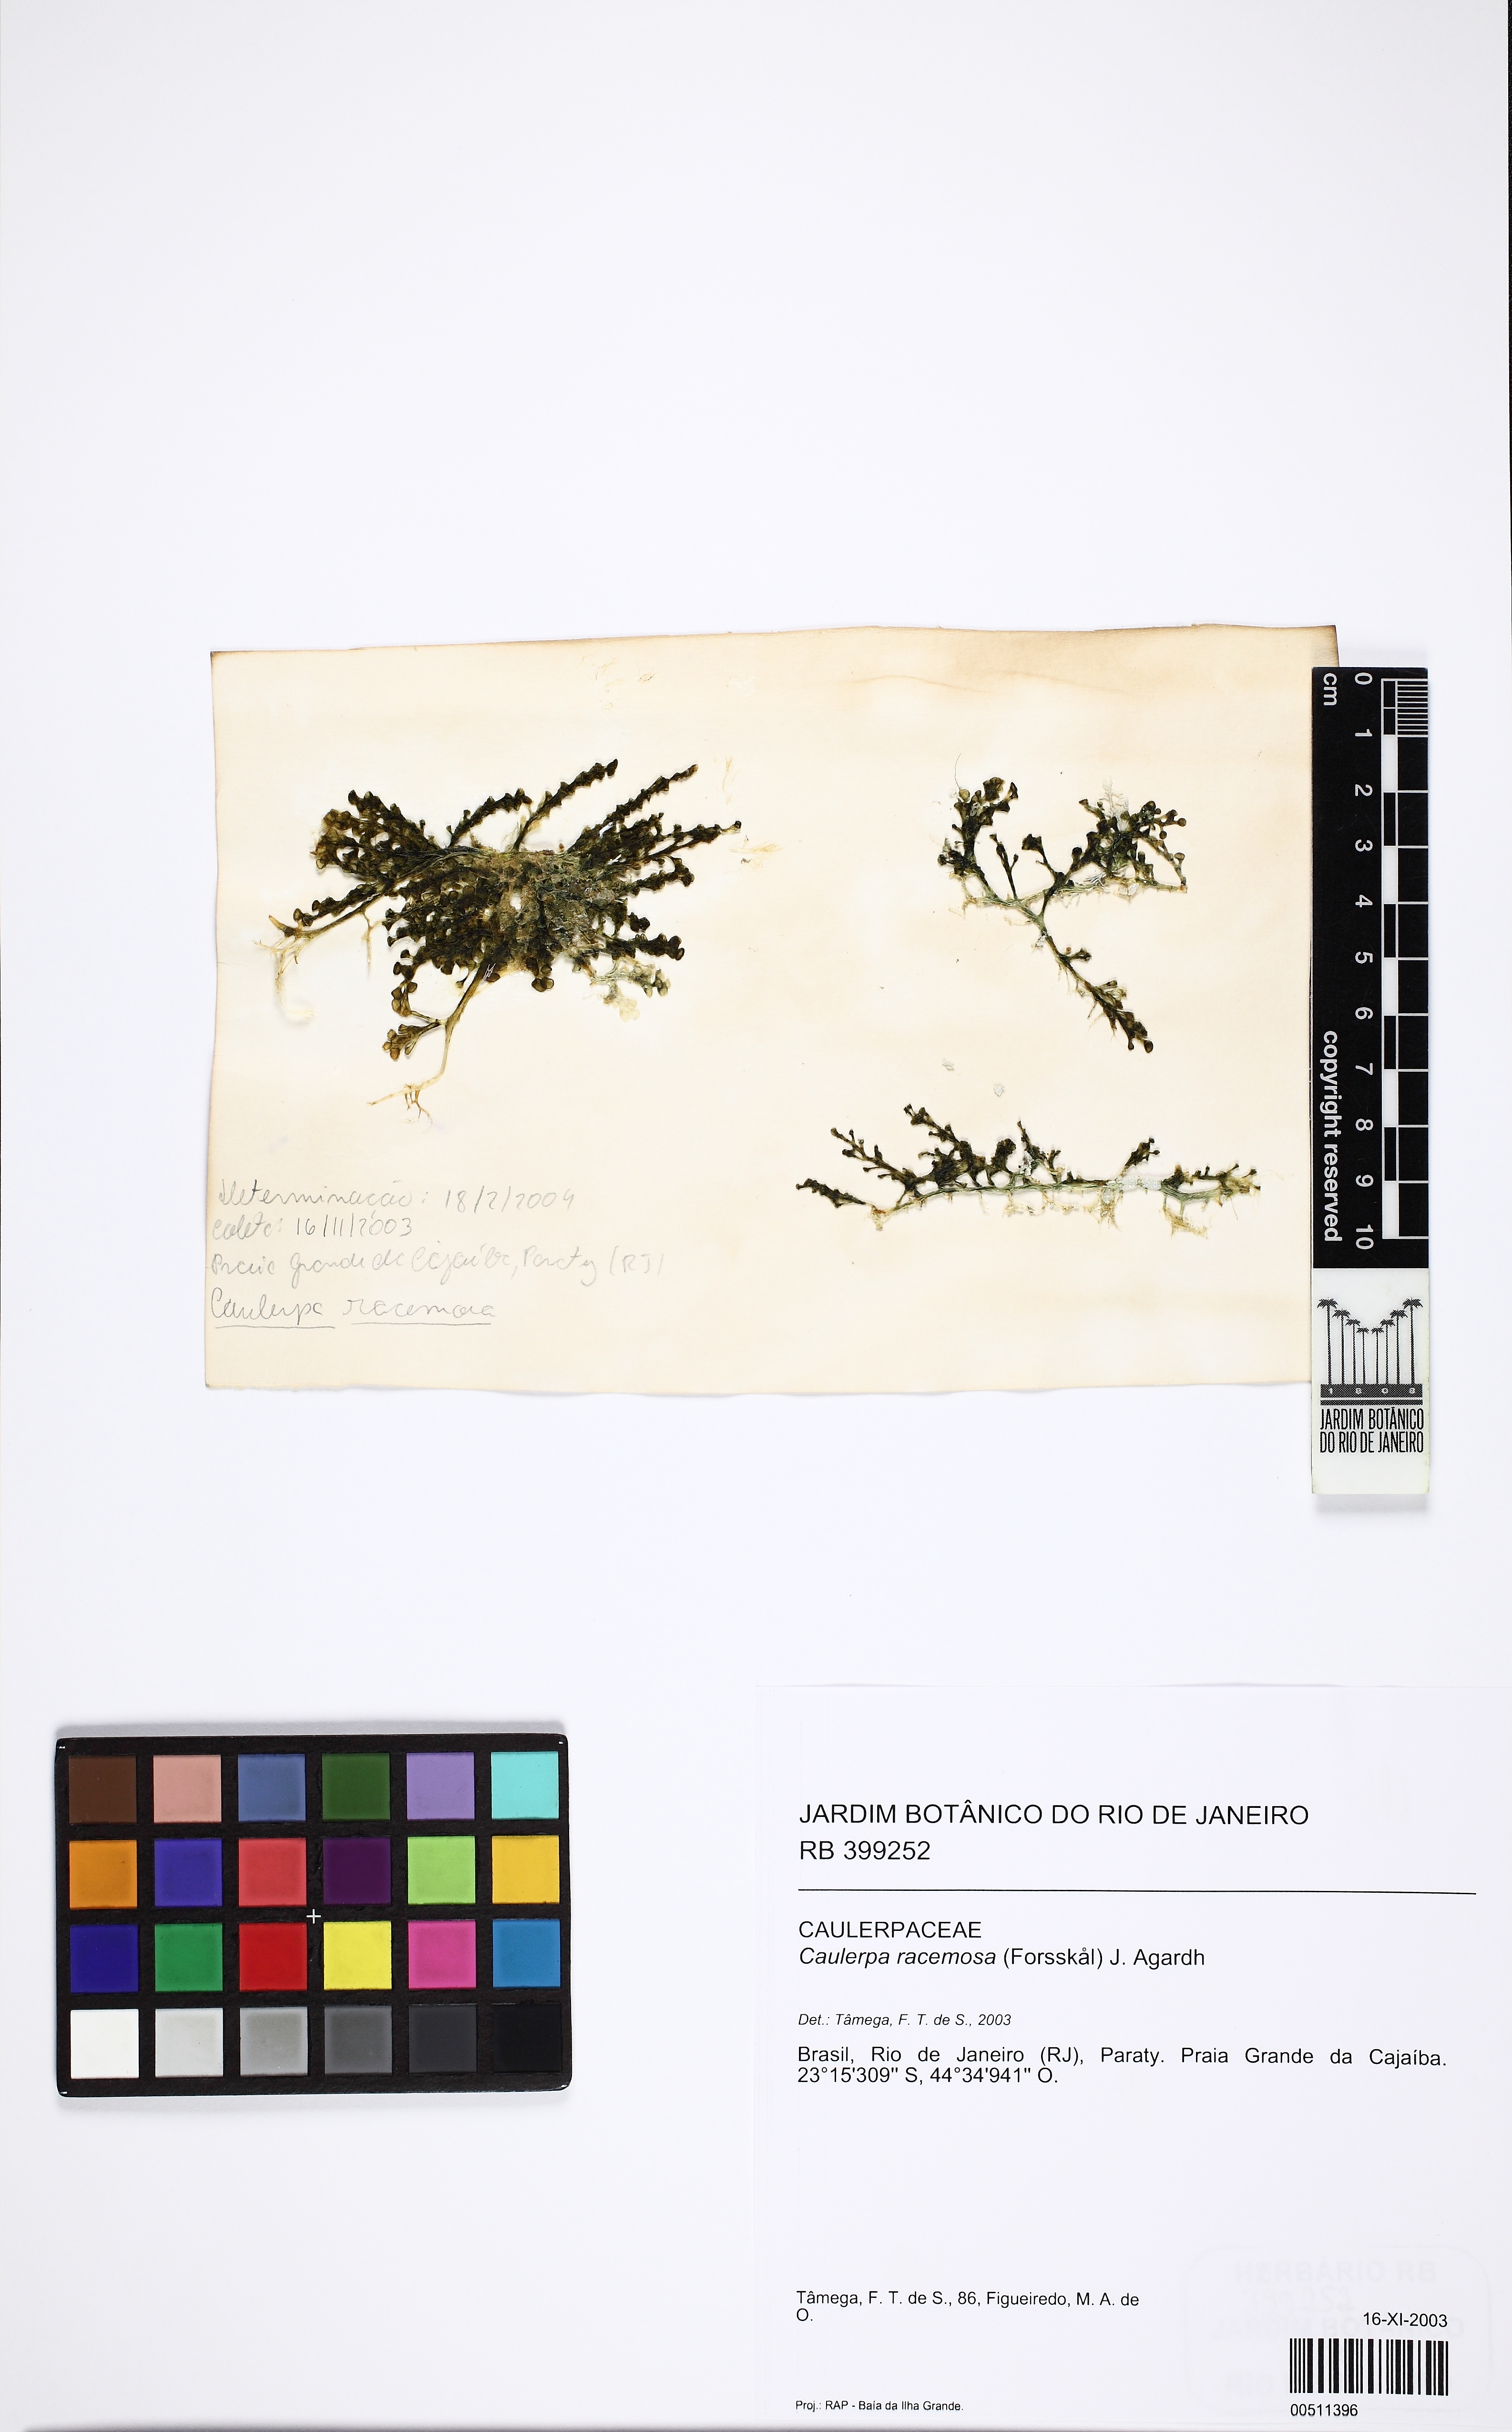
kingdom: Plantae
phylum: Chlorophyta
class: Ulvophyceae
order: Bryopsidales
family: Caulerpaceae
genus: Caulerpa
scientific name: Caulerpa racemosa
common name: Green grape algae
